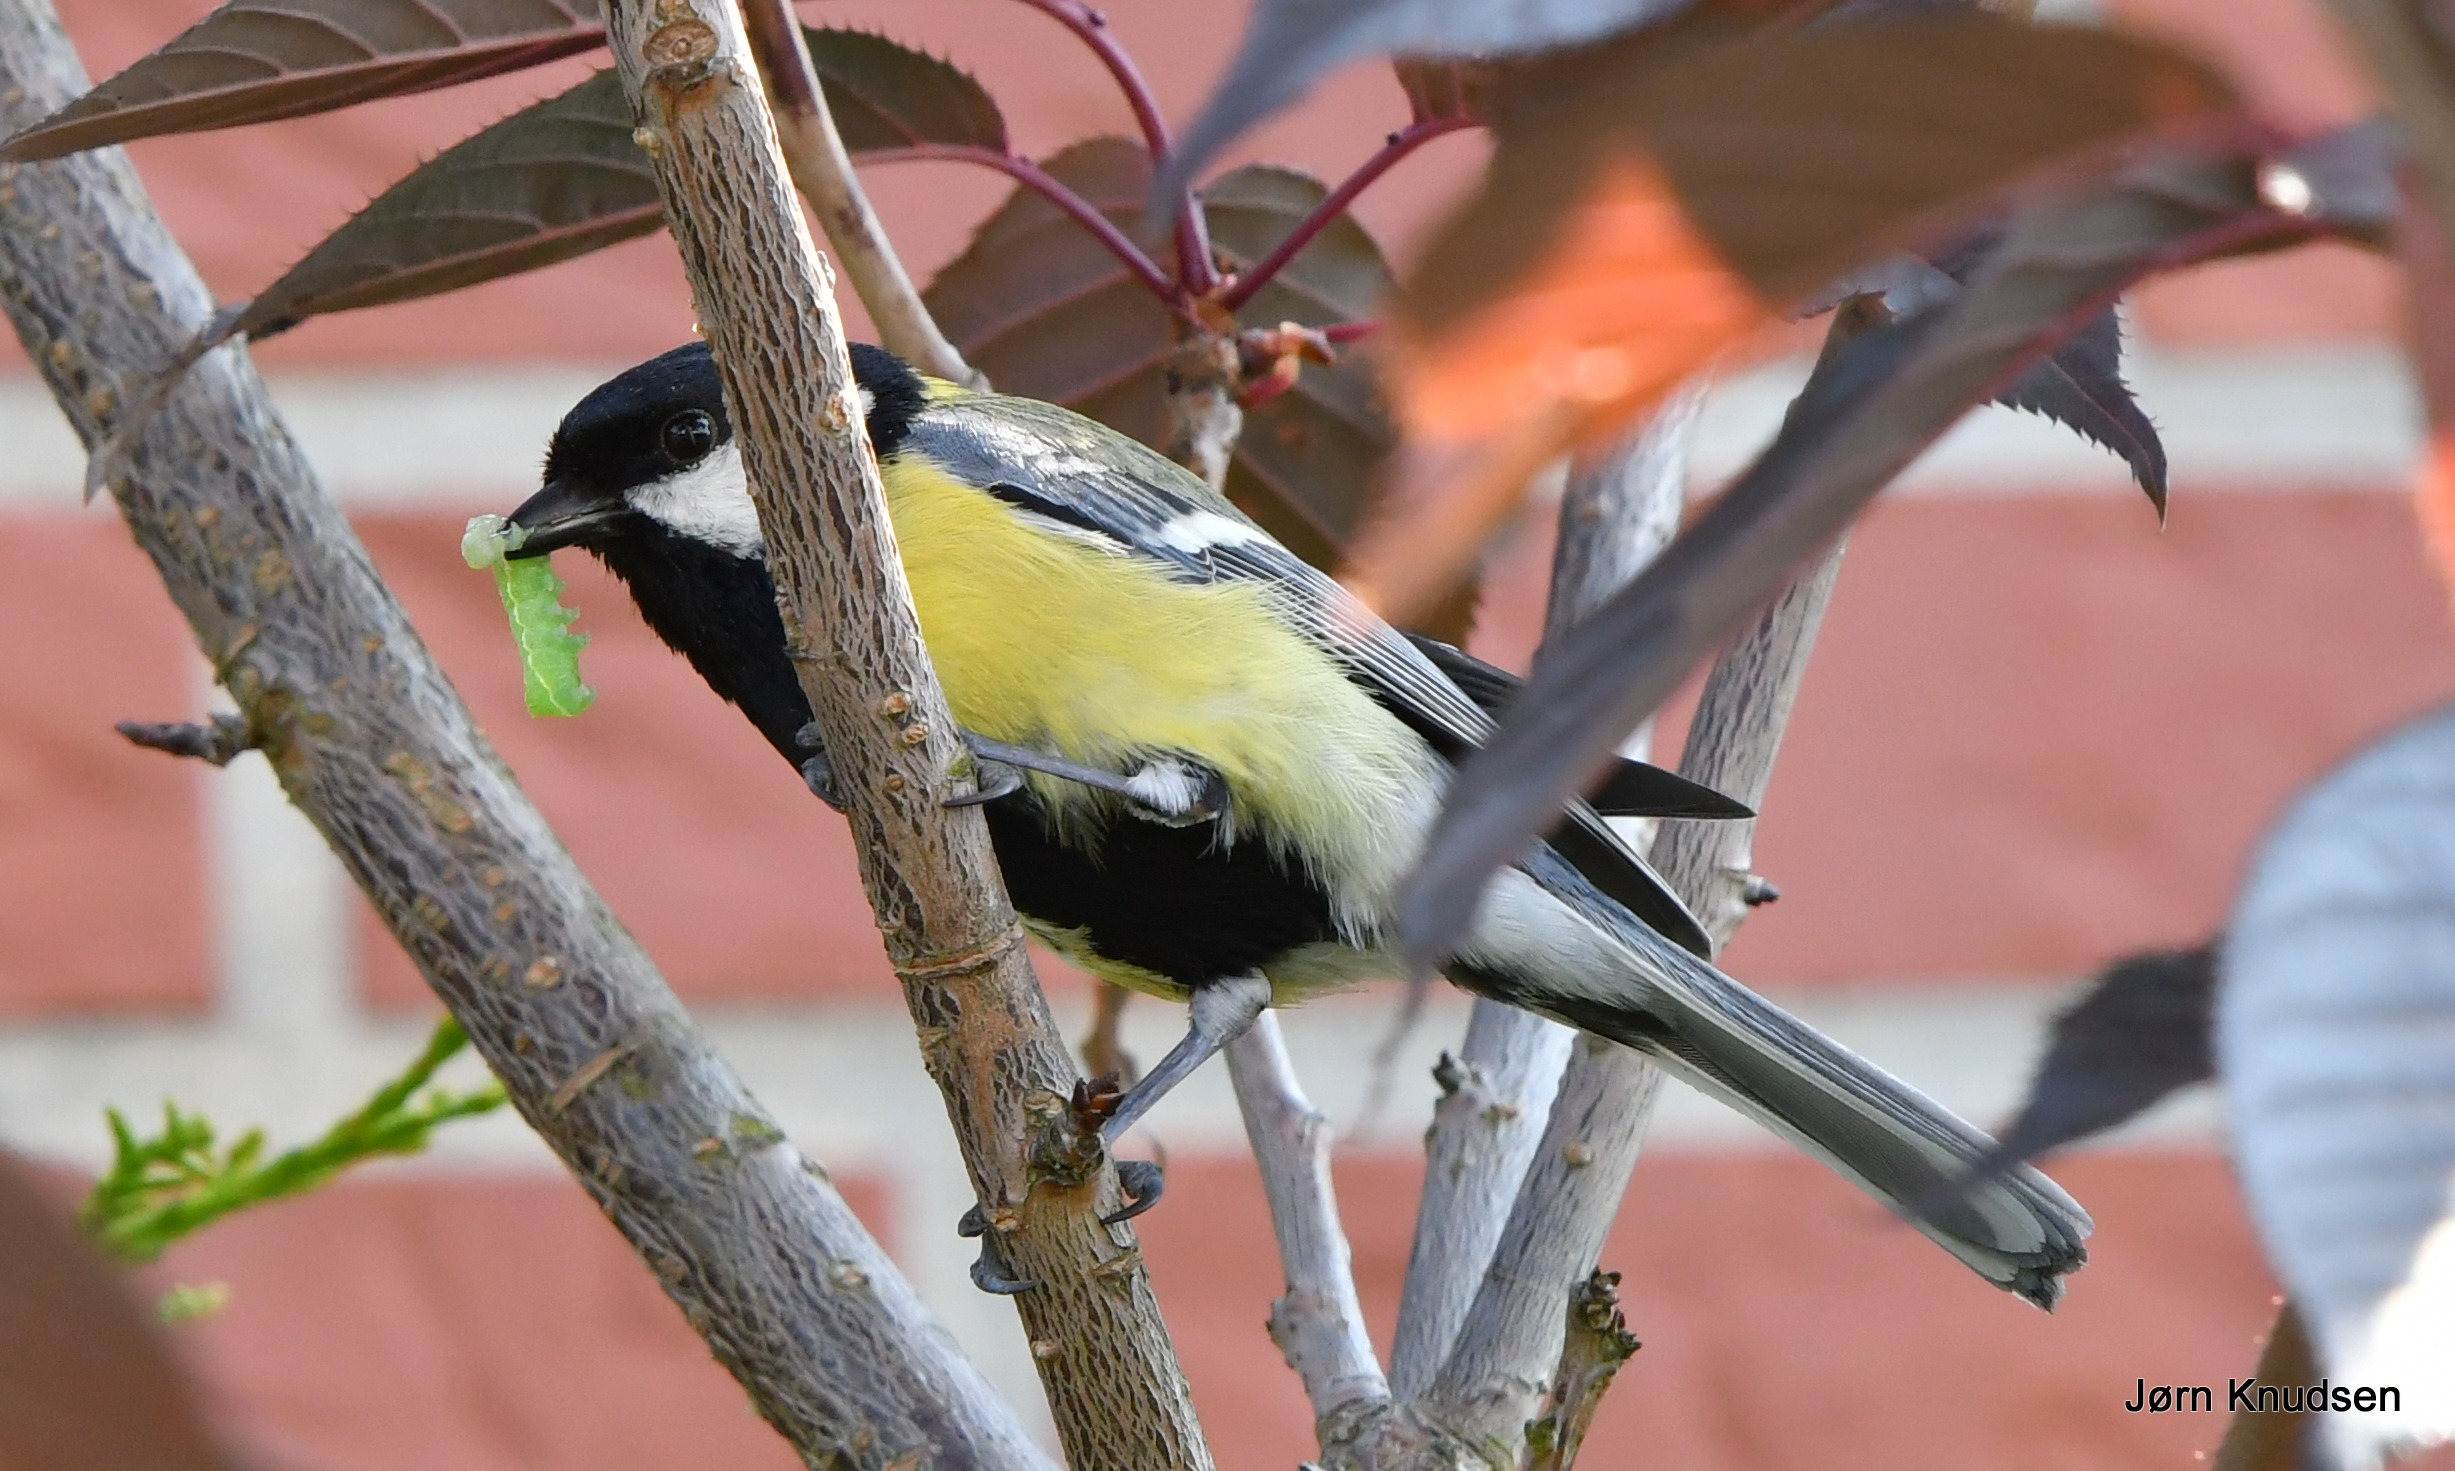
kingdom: Animalia
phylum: Chordata
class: Aves
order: Passeriformes
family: Paridae
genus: Parus
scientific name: Parus major
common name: Musvit
